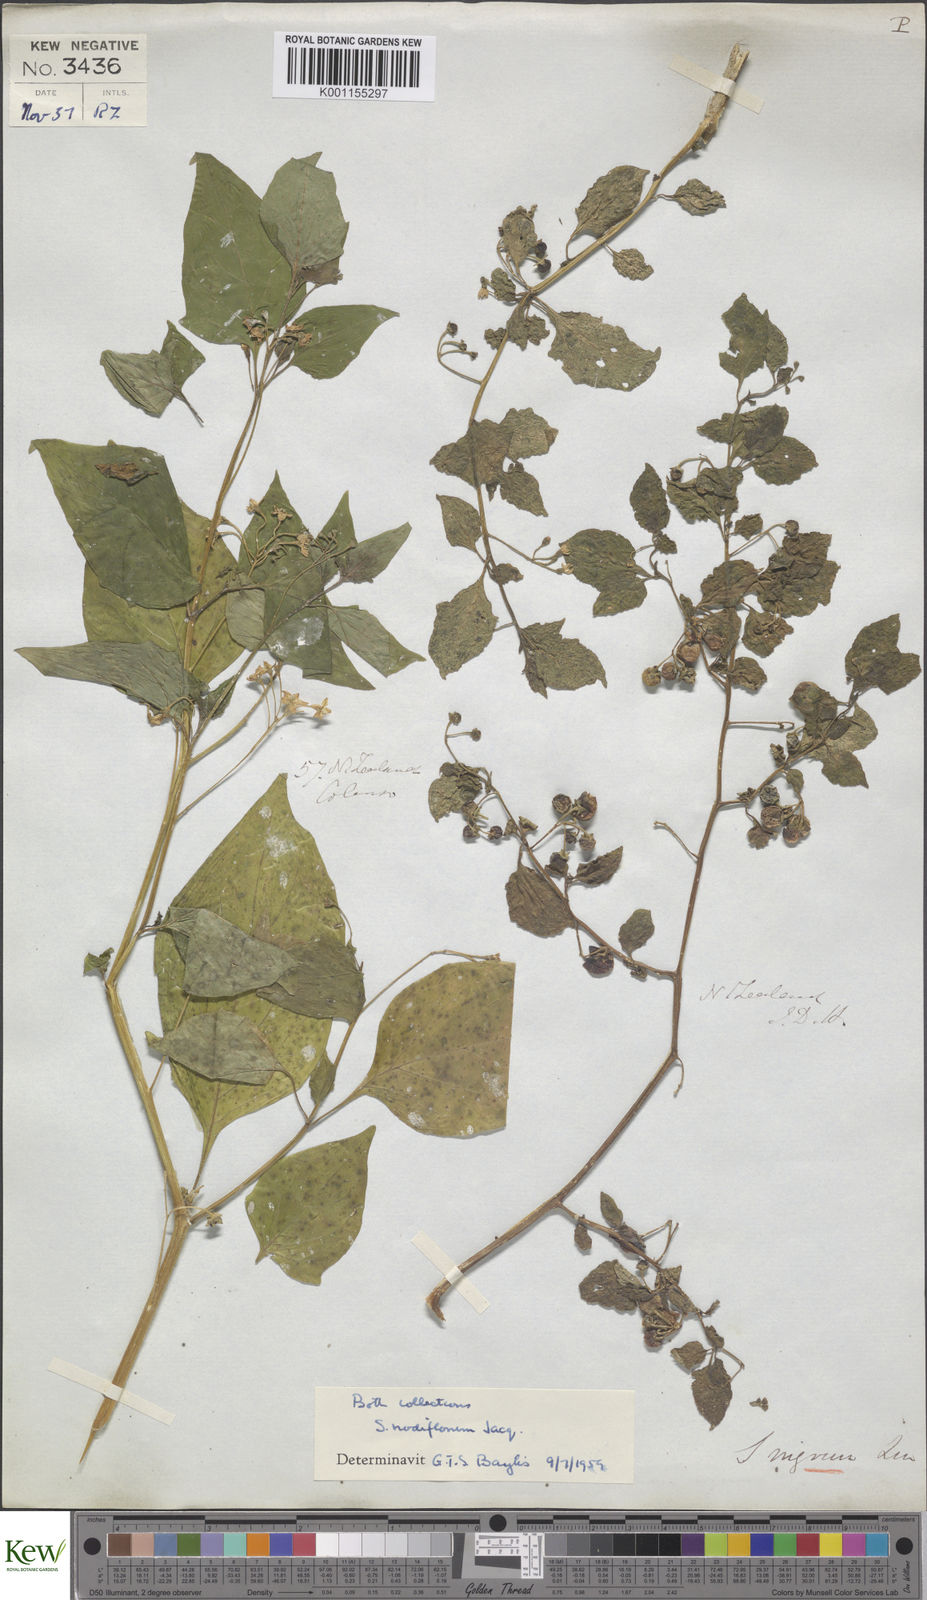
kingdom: Plantae
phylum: Tracheophyta
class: Magnoliopsida
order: Solanales
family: Solanaceae
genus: Solanum
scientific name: Solanum
